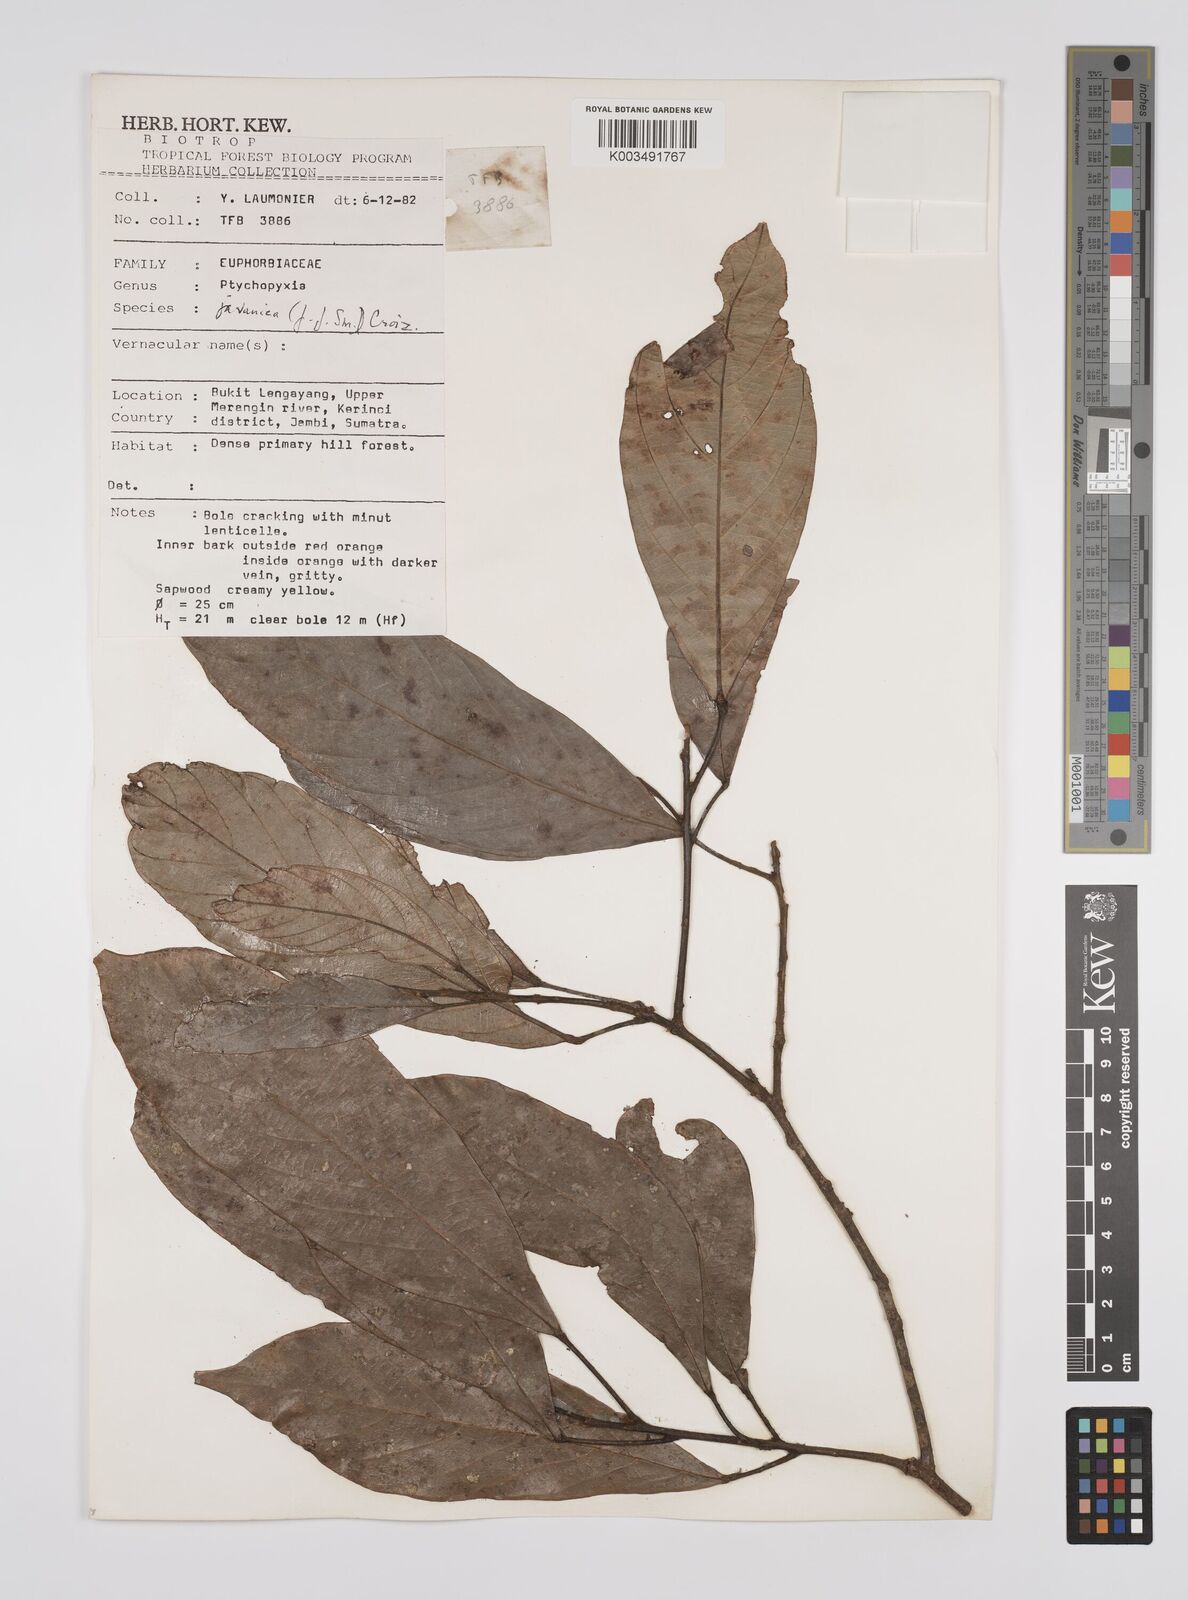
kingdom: Plantae
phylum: Tracheophyta
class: Magnoliopsida
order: Malpighiales
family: Euphorbiaceae
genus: Ptychopyxis
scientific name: Ptychopyxis javanica
